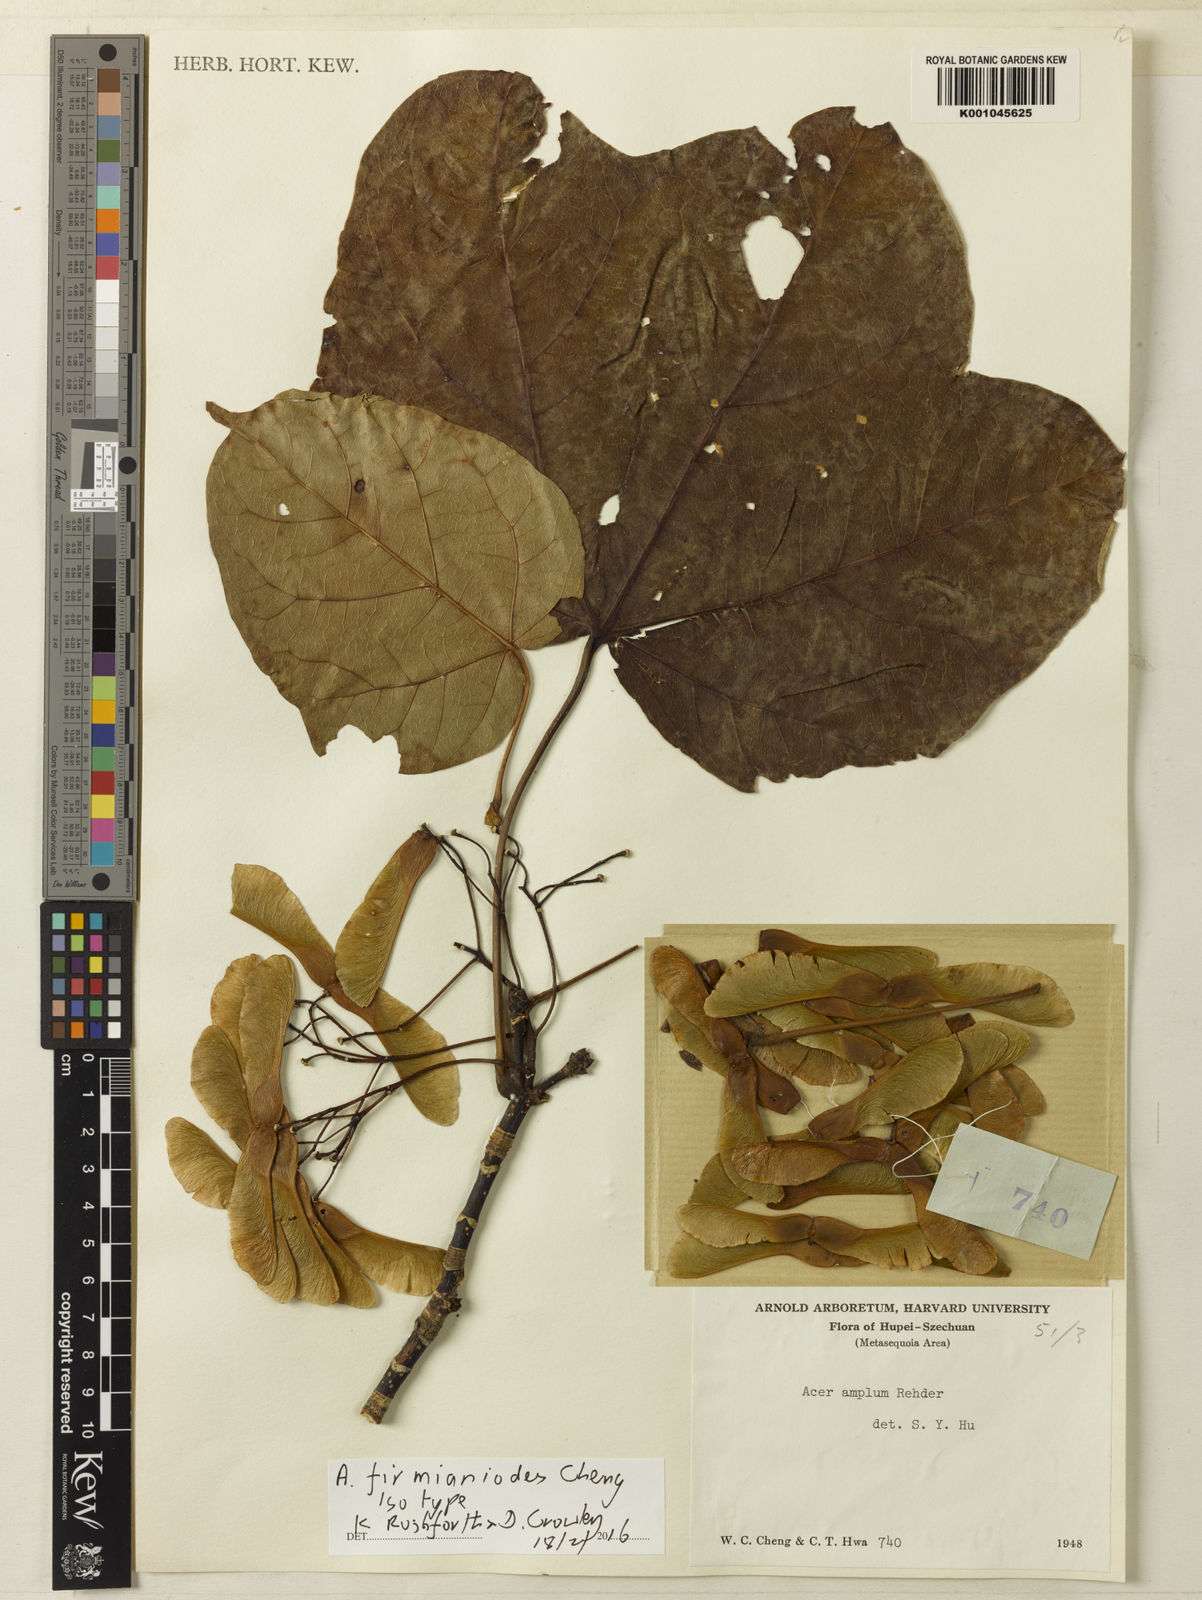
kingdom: Plantae
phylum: Tracheophyta
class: Magnoliopsida
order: Sapindales
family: Sapindaceae
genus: Acer
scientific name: Acer
